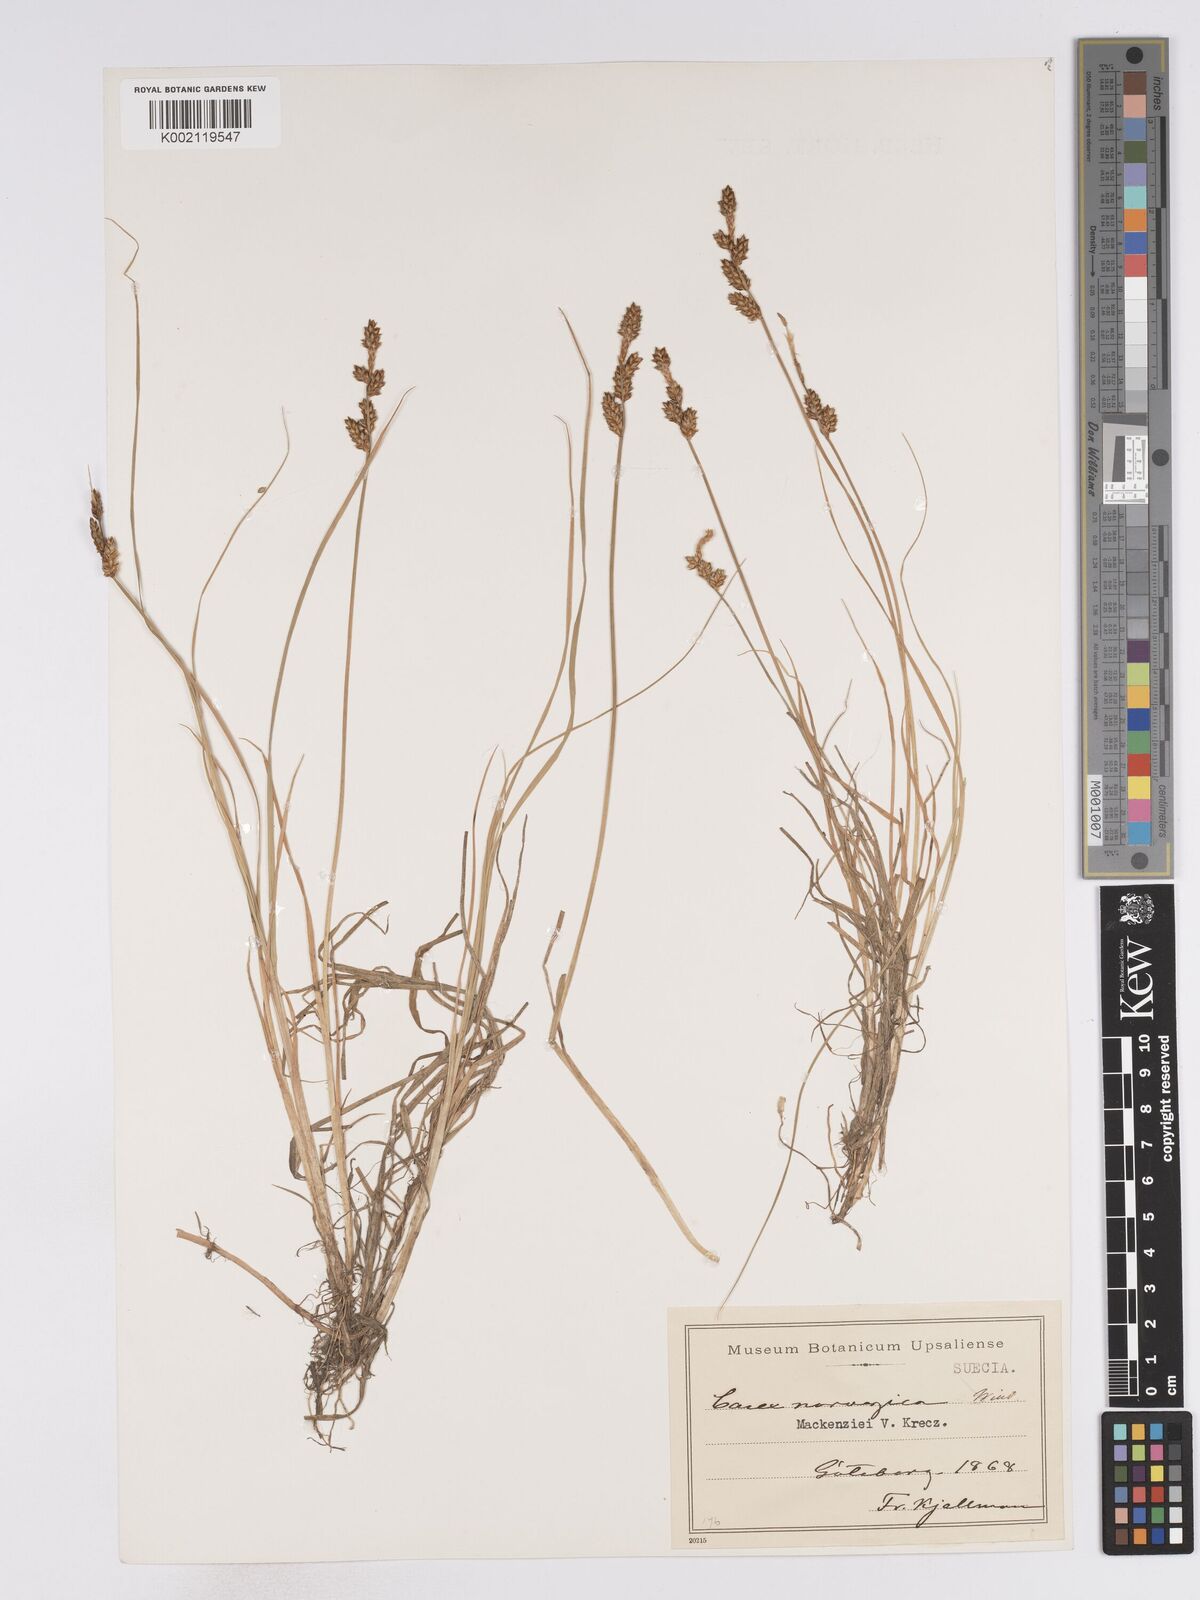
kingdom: Plantae
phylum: Tracheophyta
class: Liliopsida
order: Poales
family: Cyperaceae
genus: Carex
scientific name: Carex mackenziei
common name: Mackenzie's sedge
